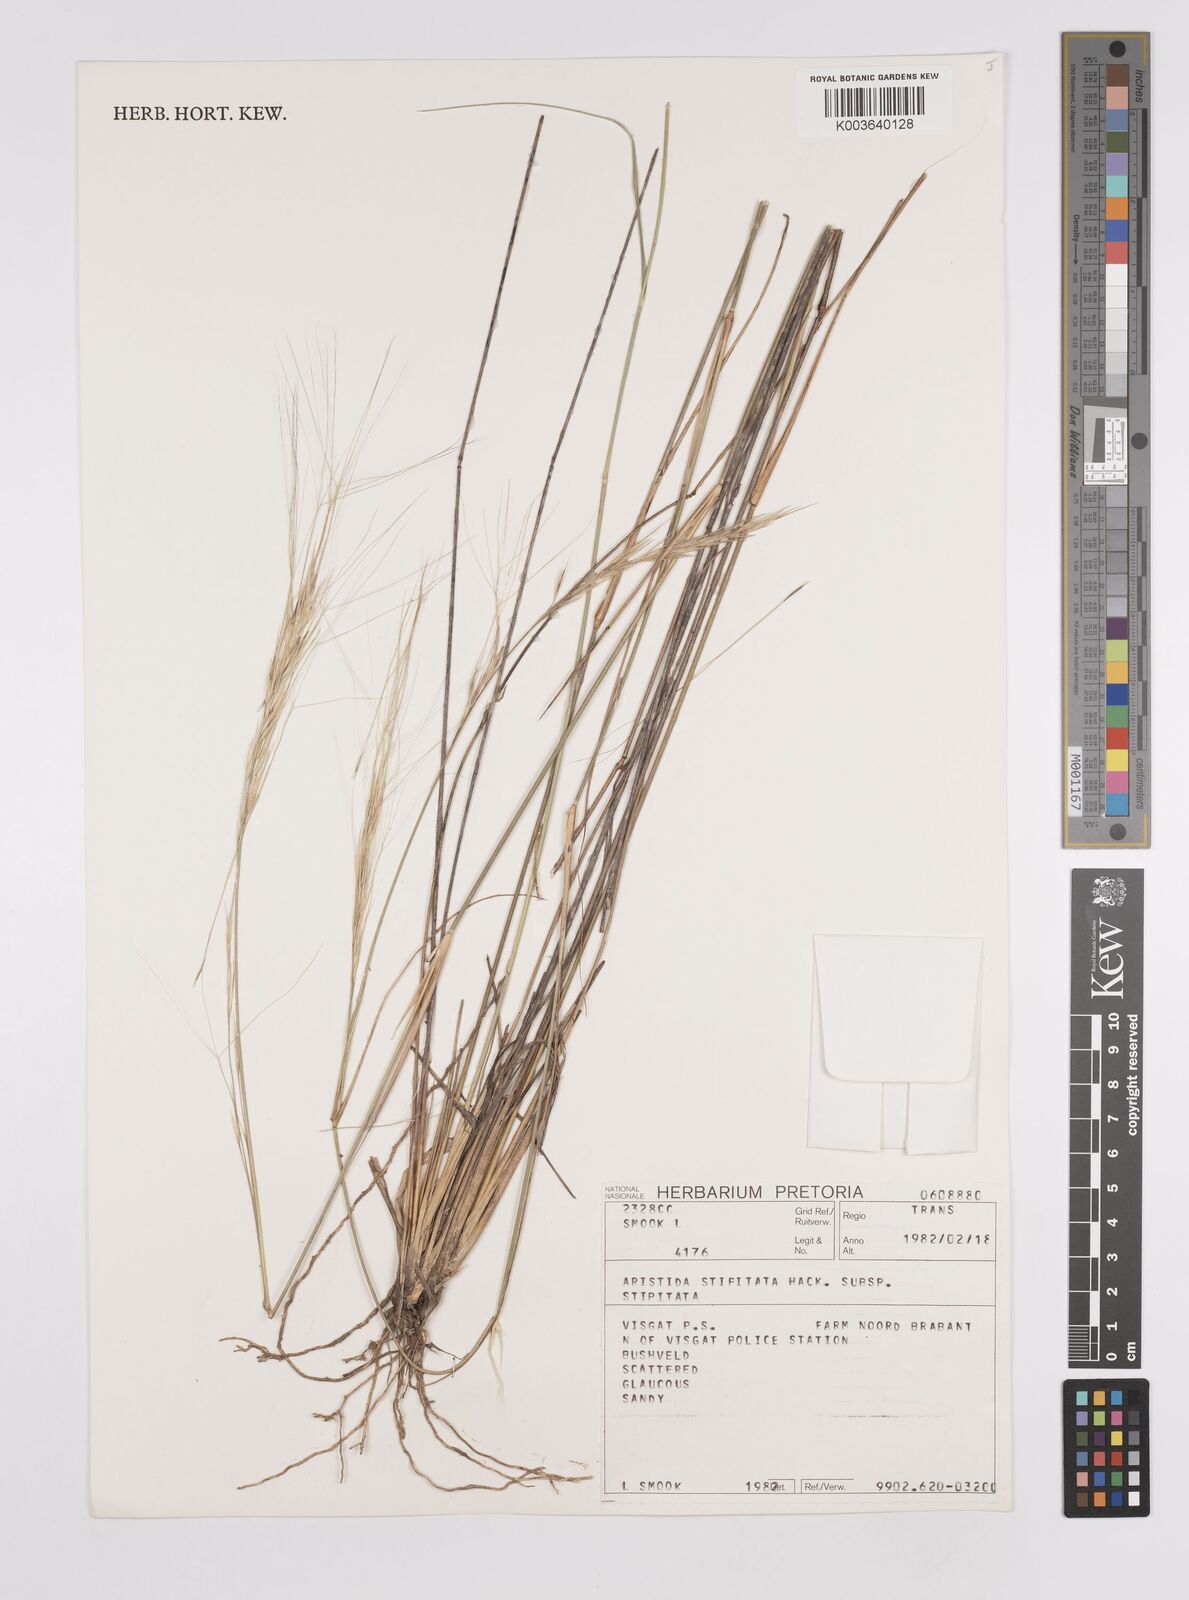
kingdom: Plantae
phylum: Tracheophyta
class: Liliopsida
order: Poales
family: Poaceae
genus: Aristida
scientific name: Aristida stipitata
